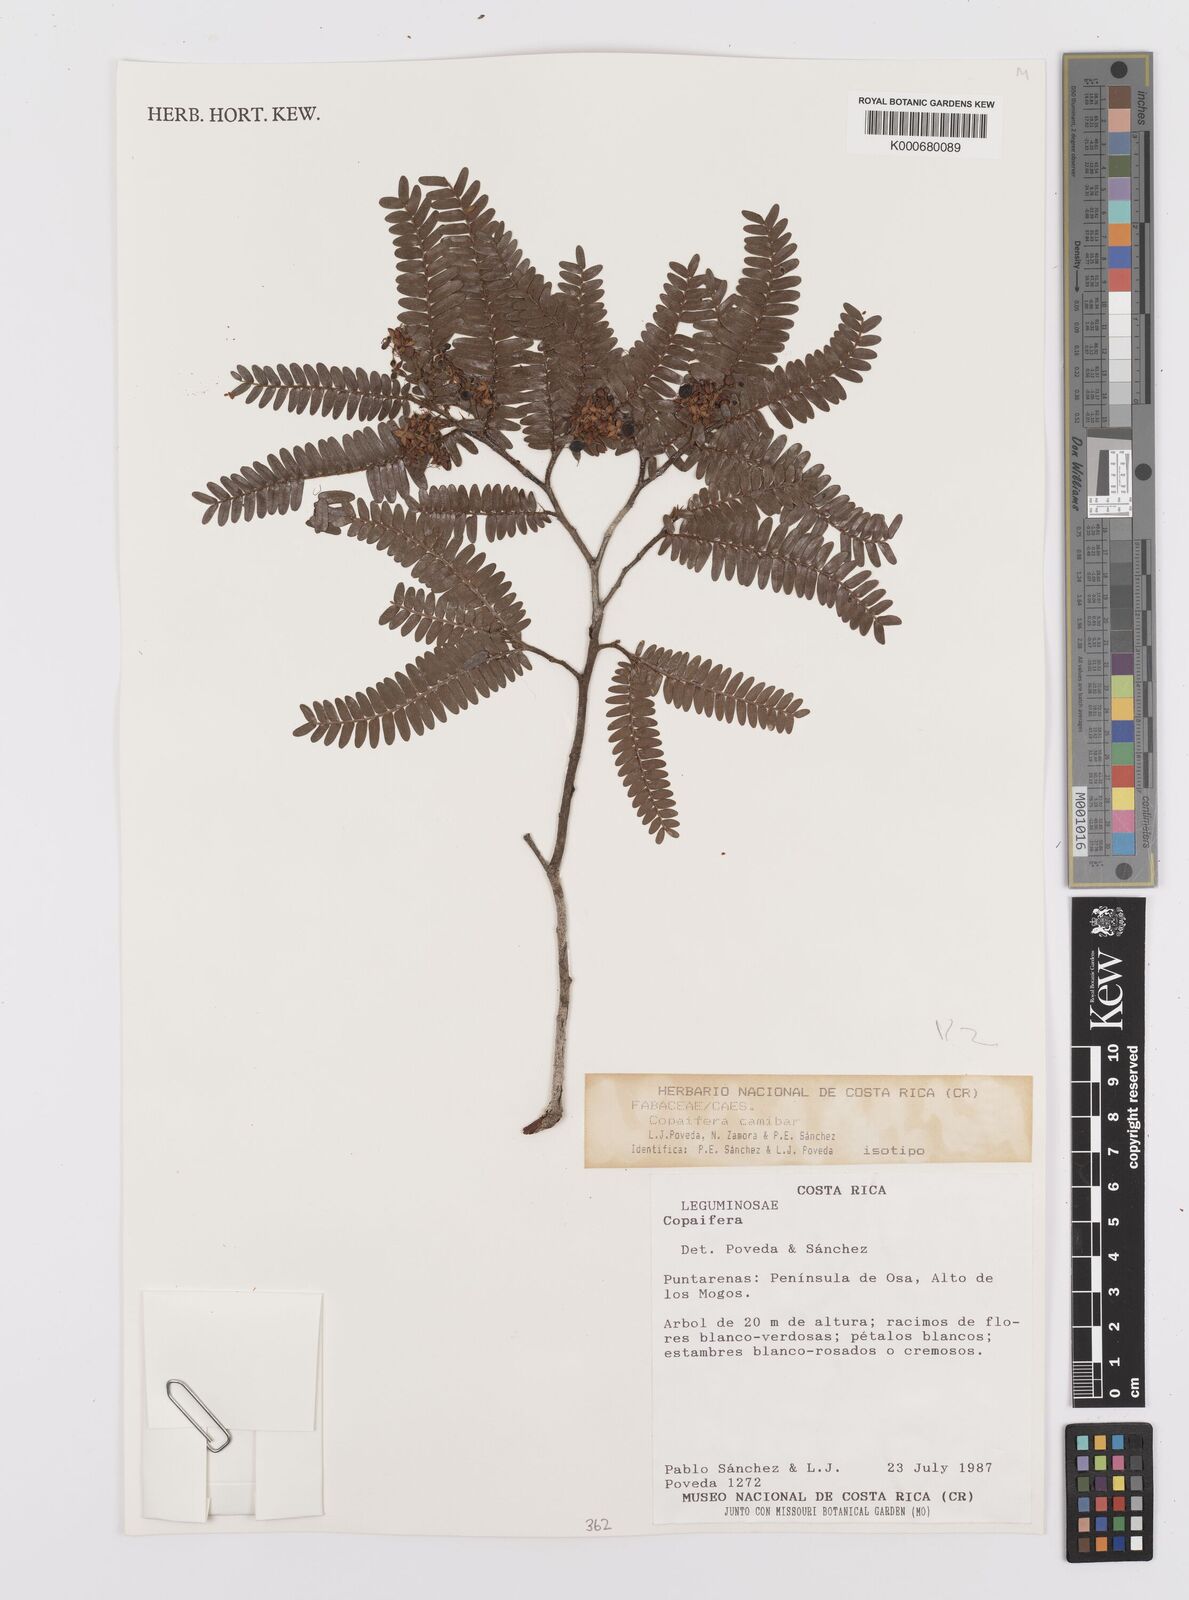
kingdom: Plantae
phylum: Tracheophyta
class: Magnoliopsida
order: Fabales
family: Fabaceae
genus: Copaifera
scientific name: Copaifera
